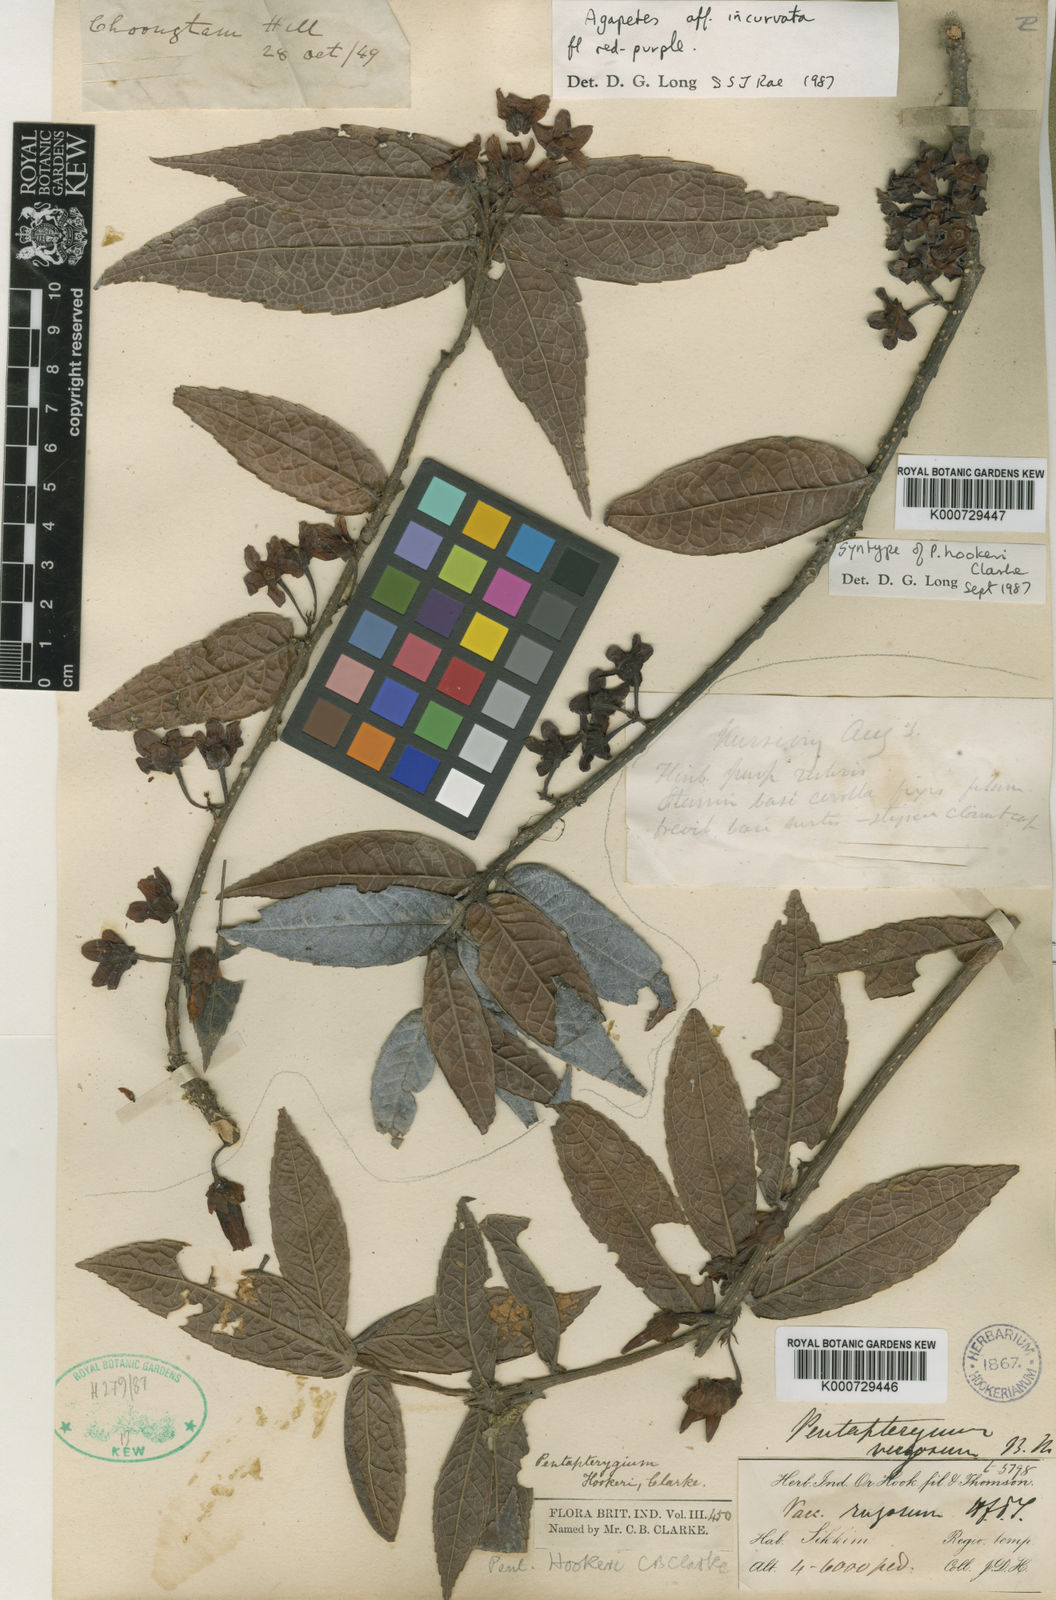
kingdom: Plantae
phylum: Tracheophyta
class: Magnoliopsida
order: Ericales
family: Ericaceae
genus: Agapetes
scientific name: Agapetes hookeri
